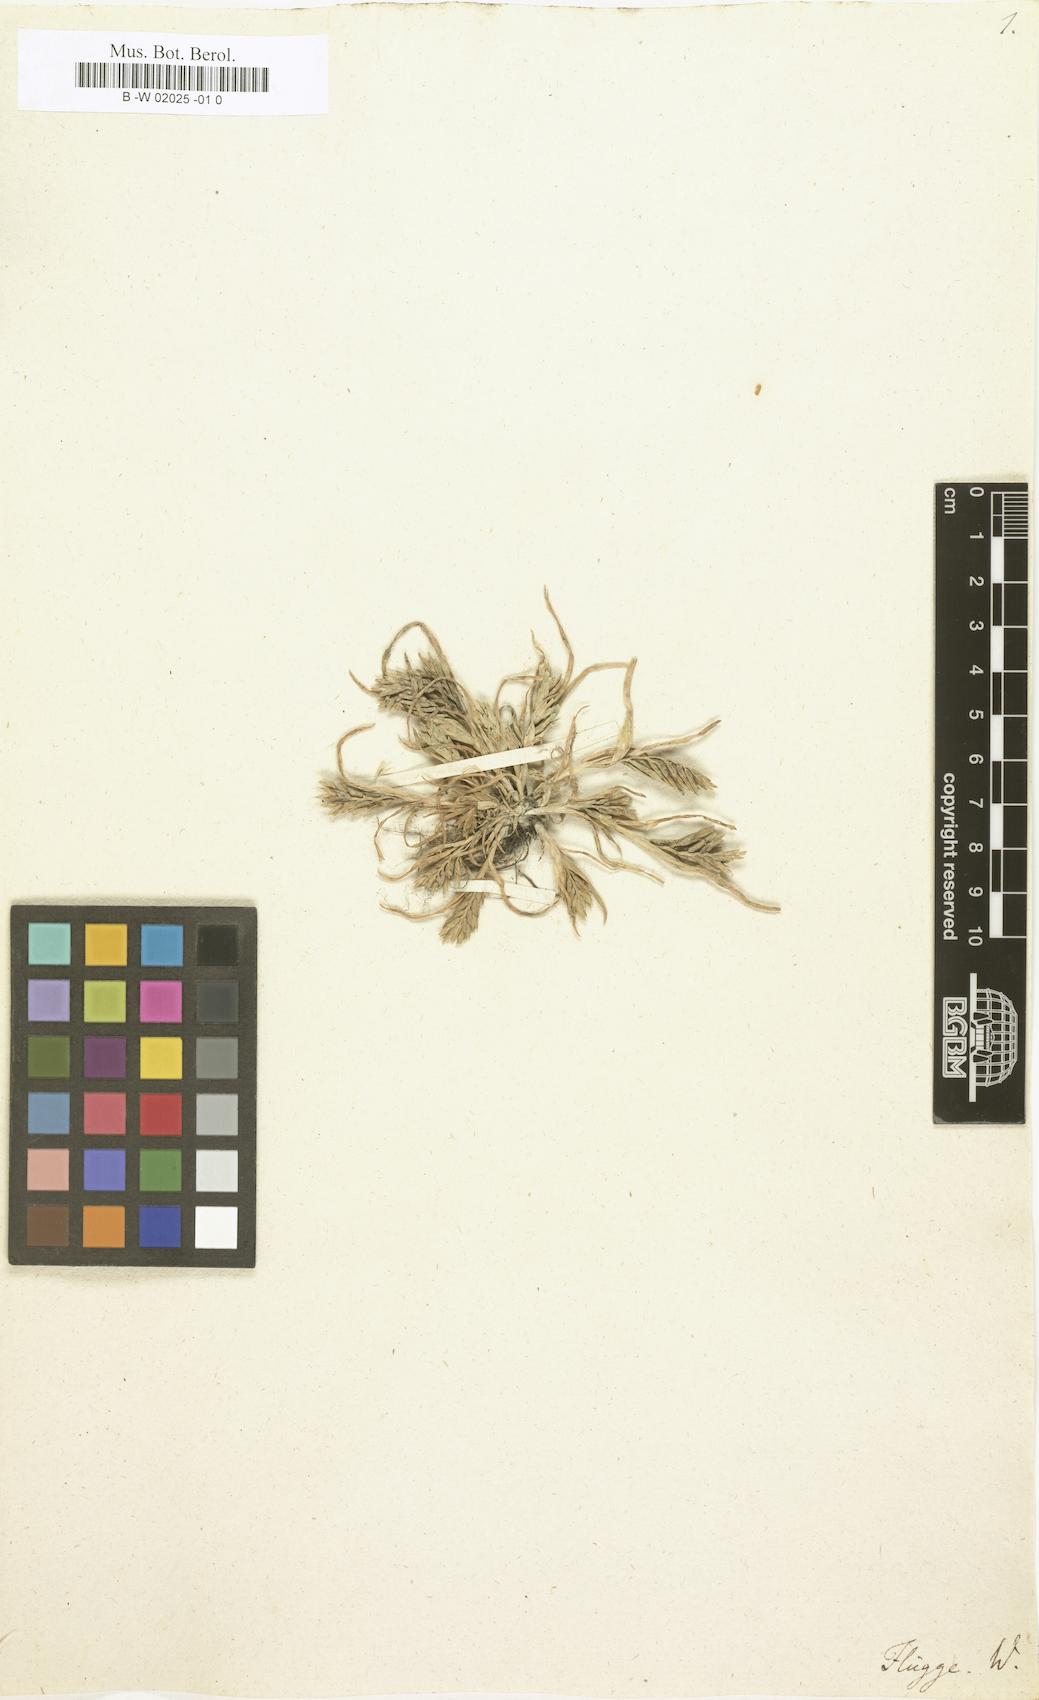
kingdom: Plantae
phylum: Tracheophyta
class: Liliopsida
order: Poales
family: Poaceae
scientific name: Poaceae
